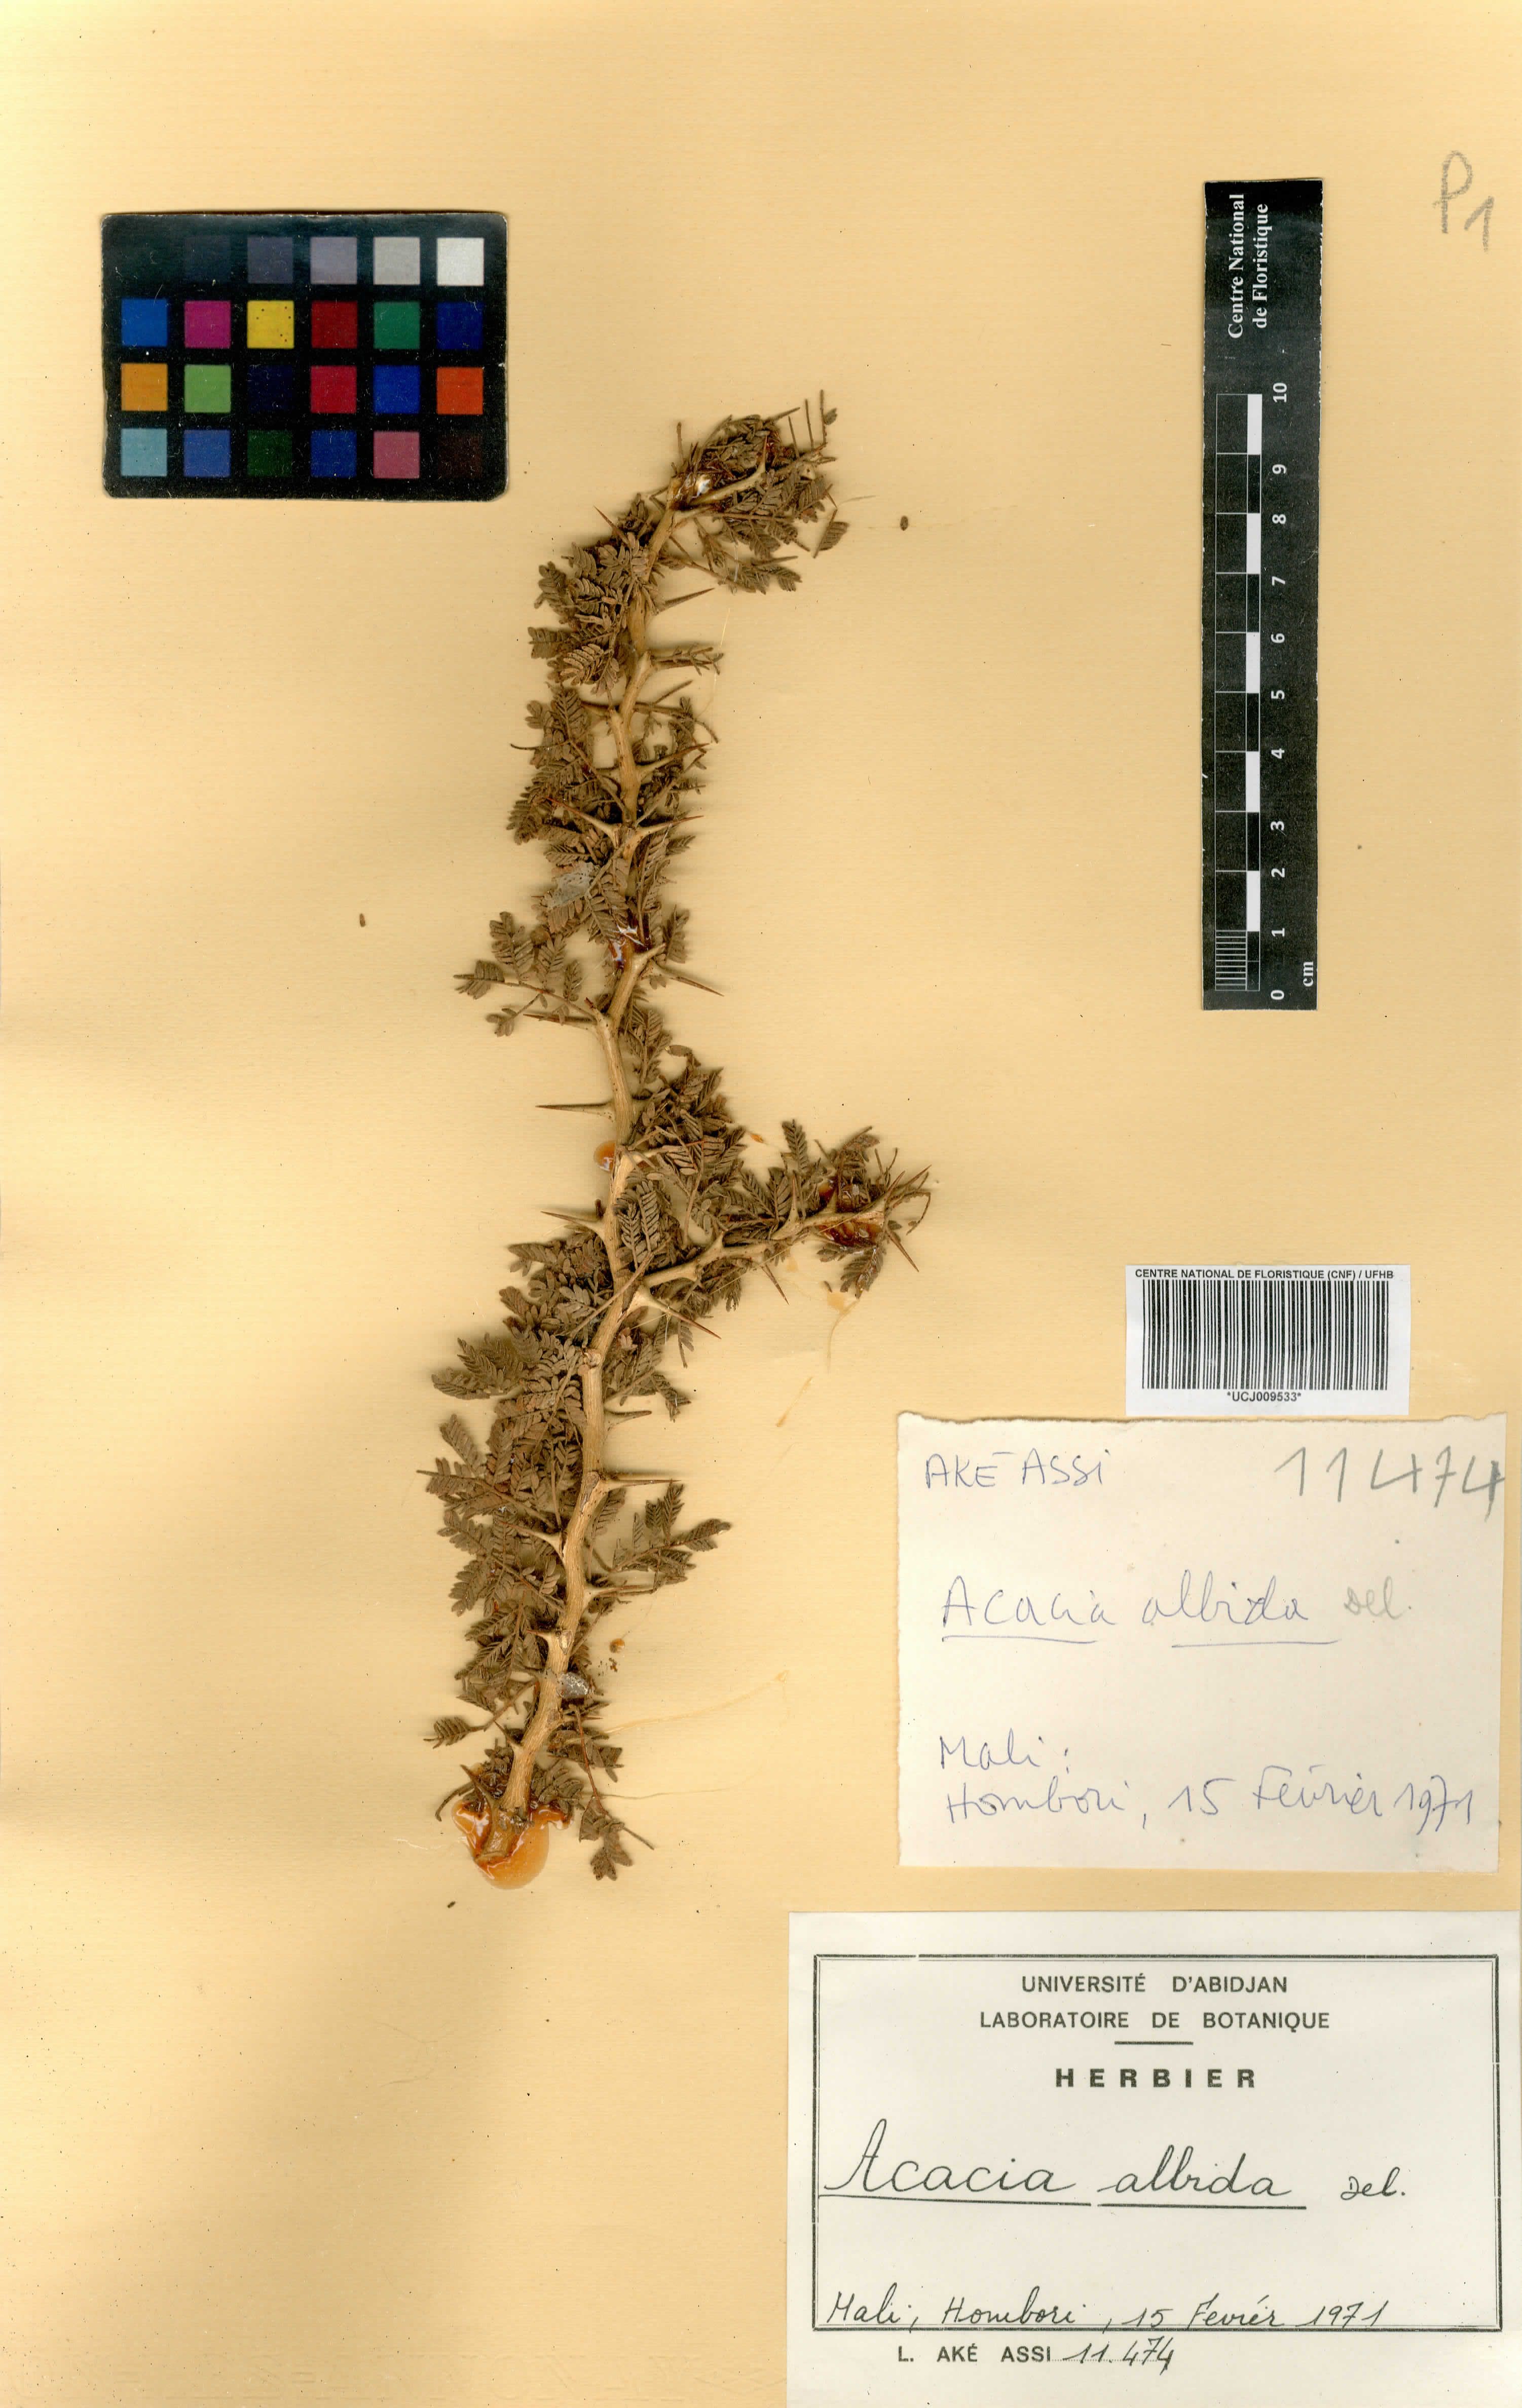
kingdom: Plantae
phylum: Tracheophyta
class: Magnoliopsida
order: Fabales
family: Fabaceae
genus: Faidherbia
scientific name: Faidherbia albida
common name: Anatree
